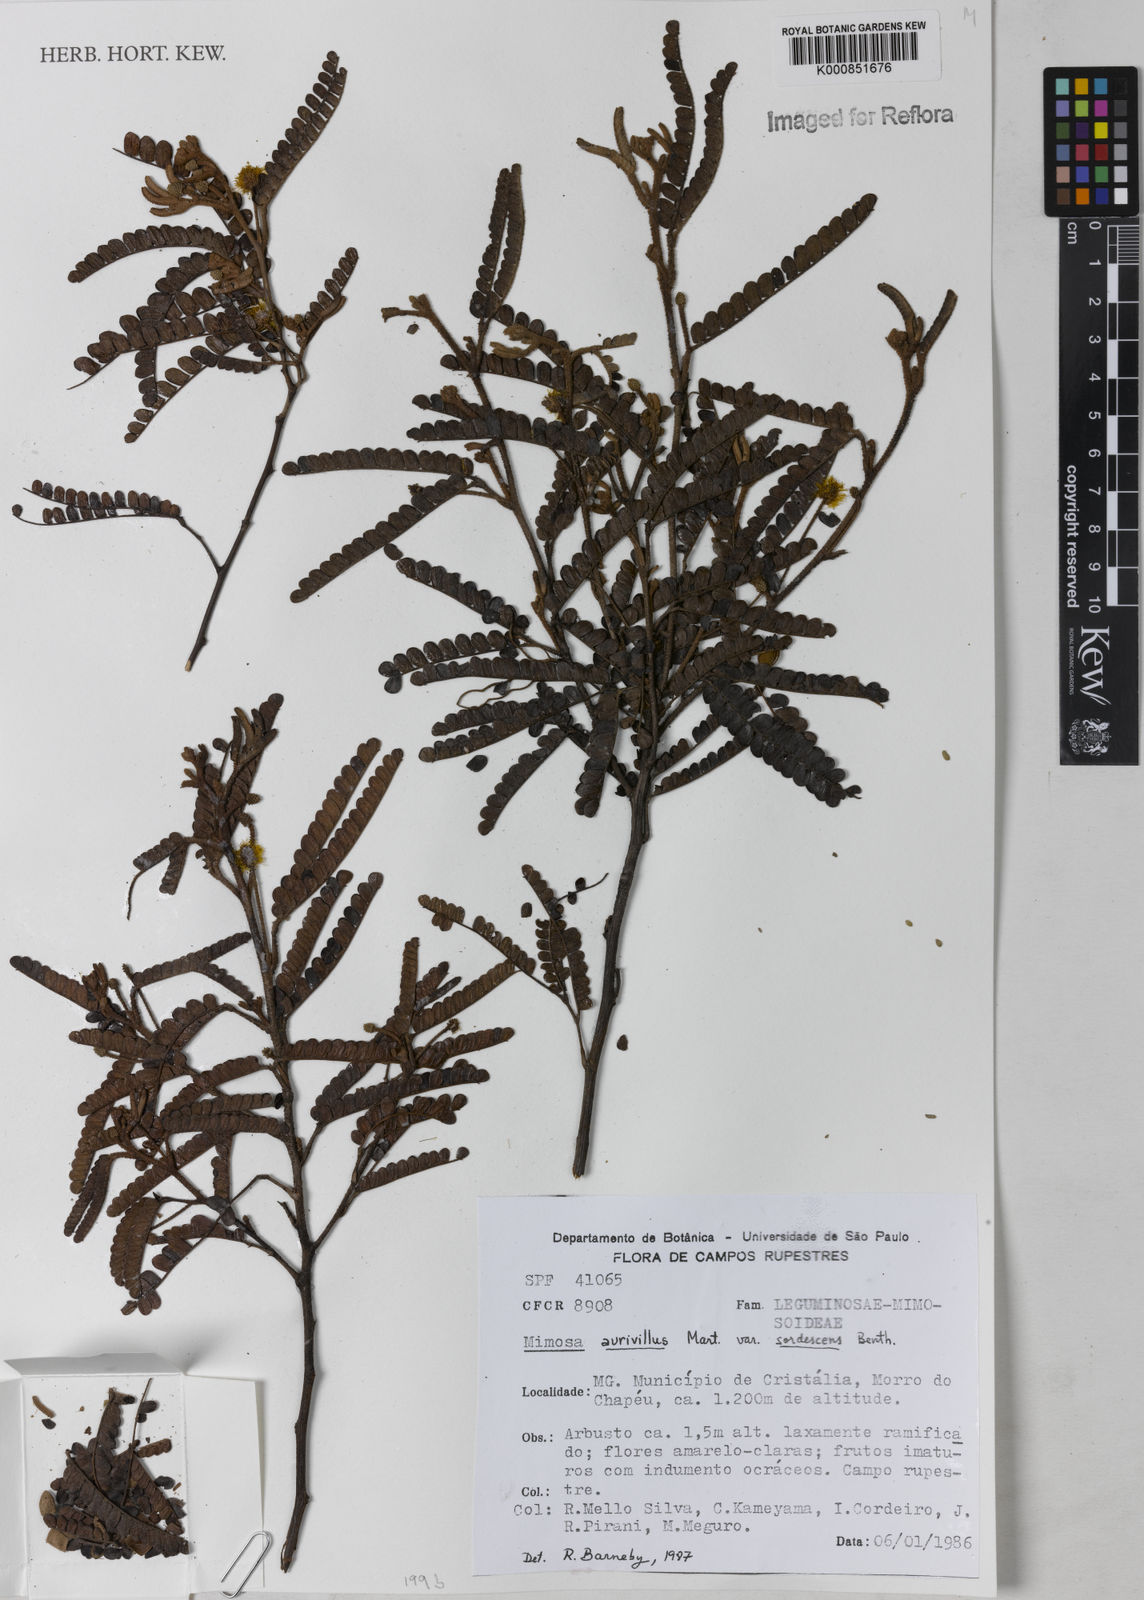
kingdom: Plantae
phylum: Tracheophyta
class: Magnoliopsida
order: Fabales
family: Fabaceae
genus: Mimosa
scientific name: Mimosa aurivillus
